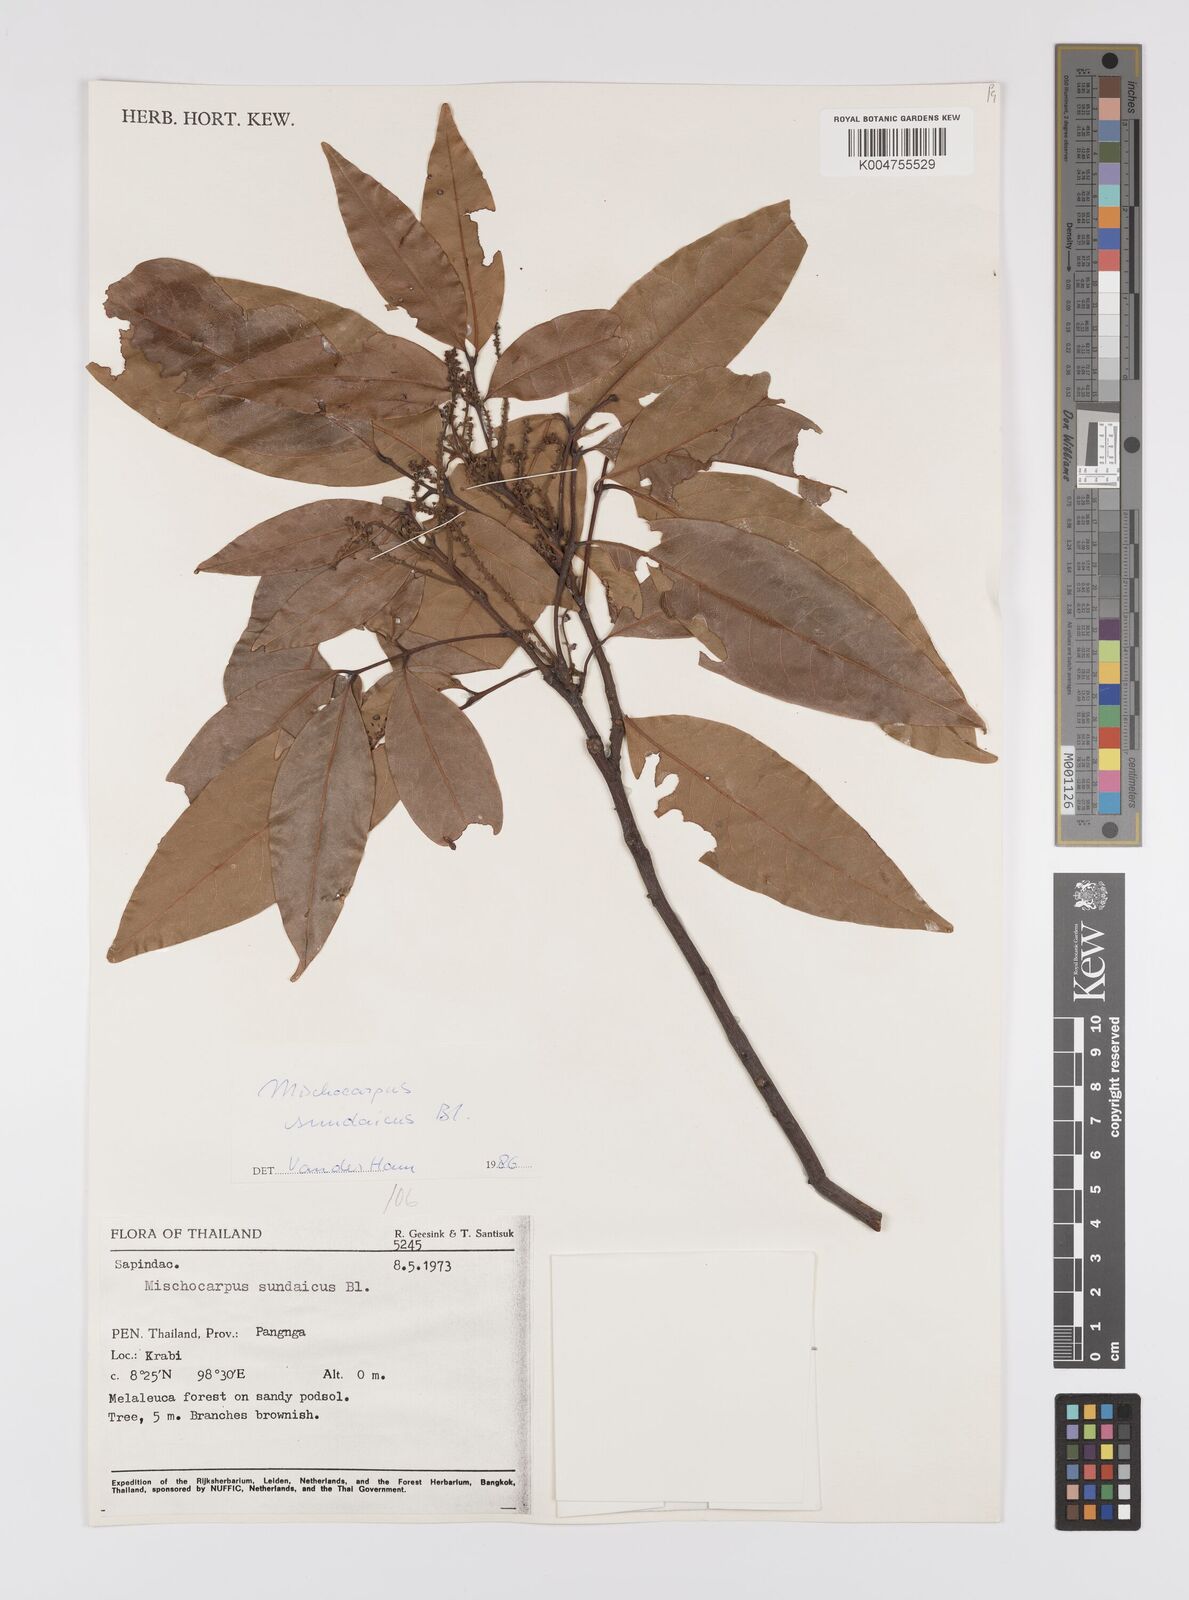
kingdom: Plantae
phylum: Tracheophyta
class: Magnoliopsida
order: Sapindales
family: Sapindaceae
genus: Mischocarpus
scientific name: Mischocarpus sundaicus
